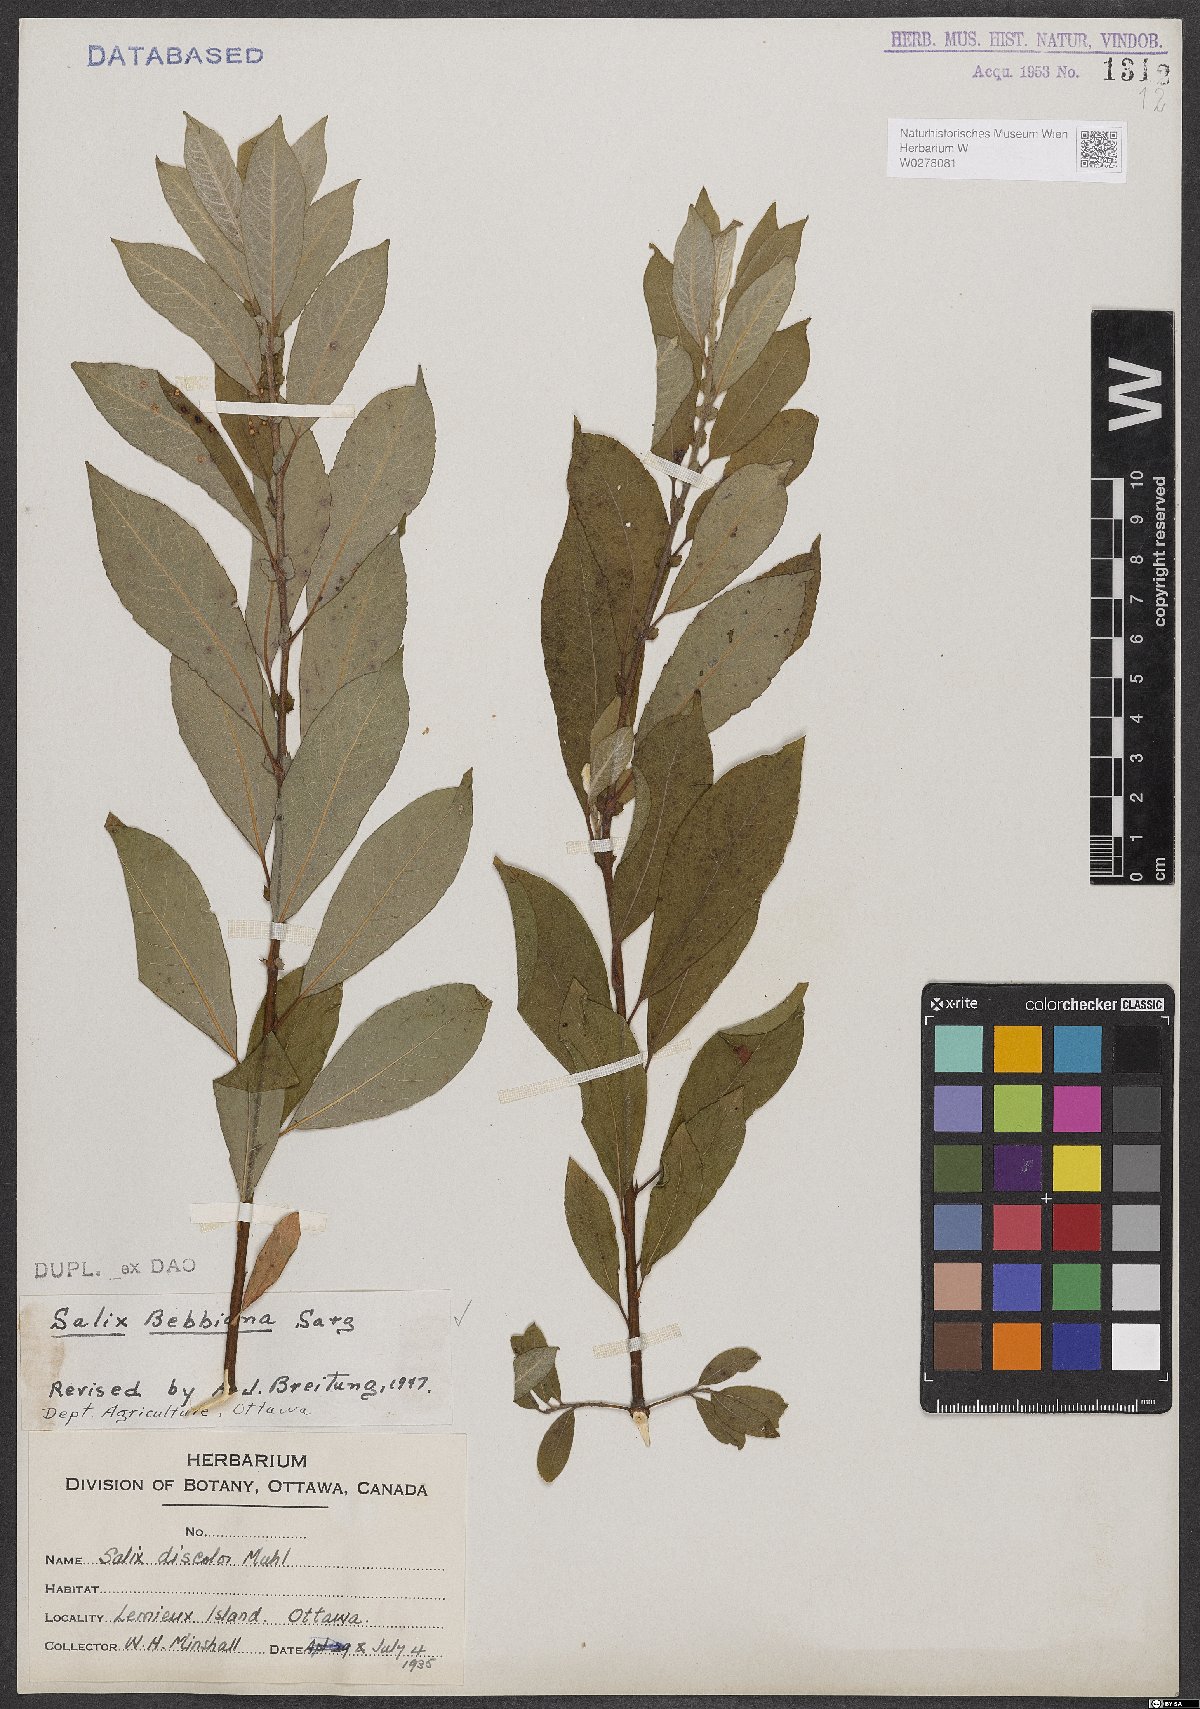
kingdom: Plantae
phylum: Tracheophyta
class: Magnoliopsida
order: Malpighiales
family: Salicaceae
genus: Salix
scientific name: Salix bebbiana
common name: Bebb's willow
